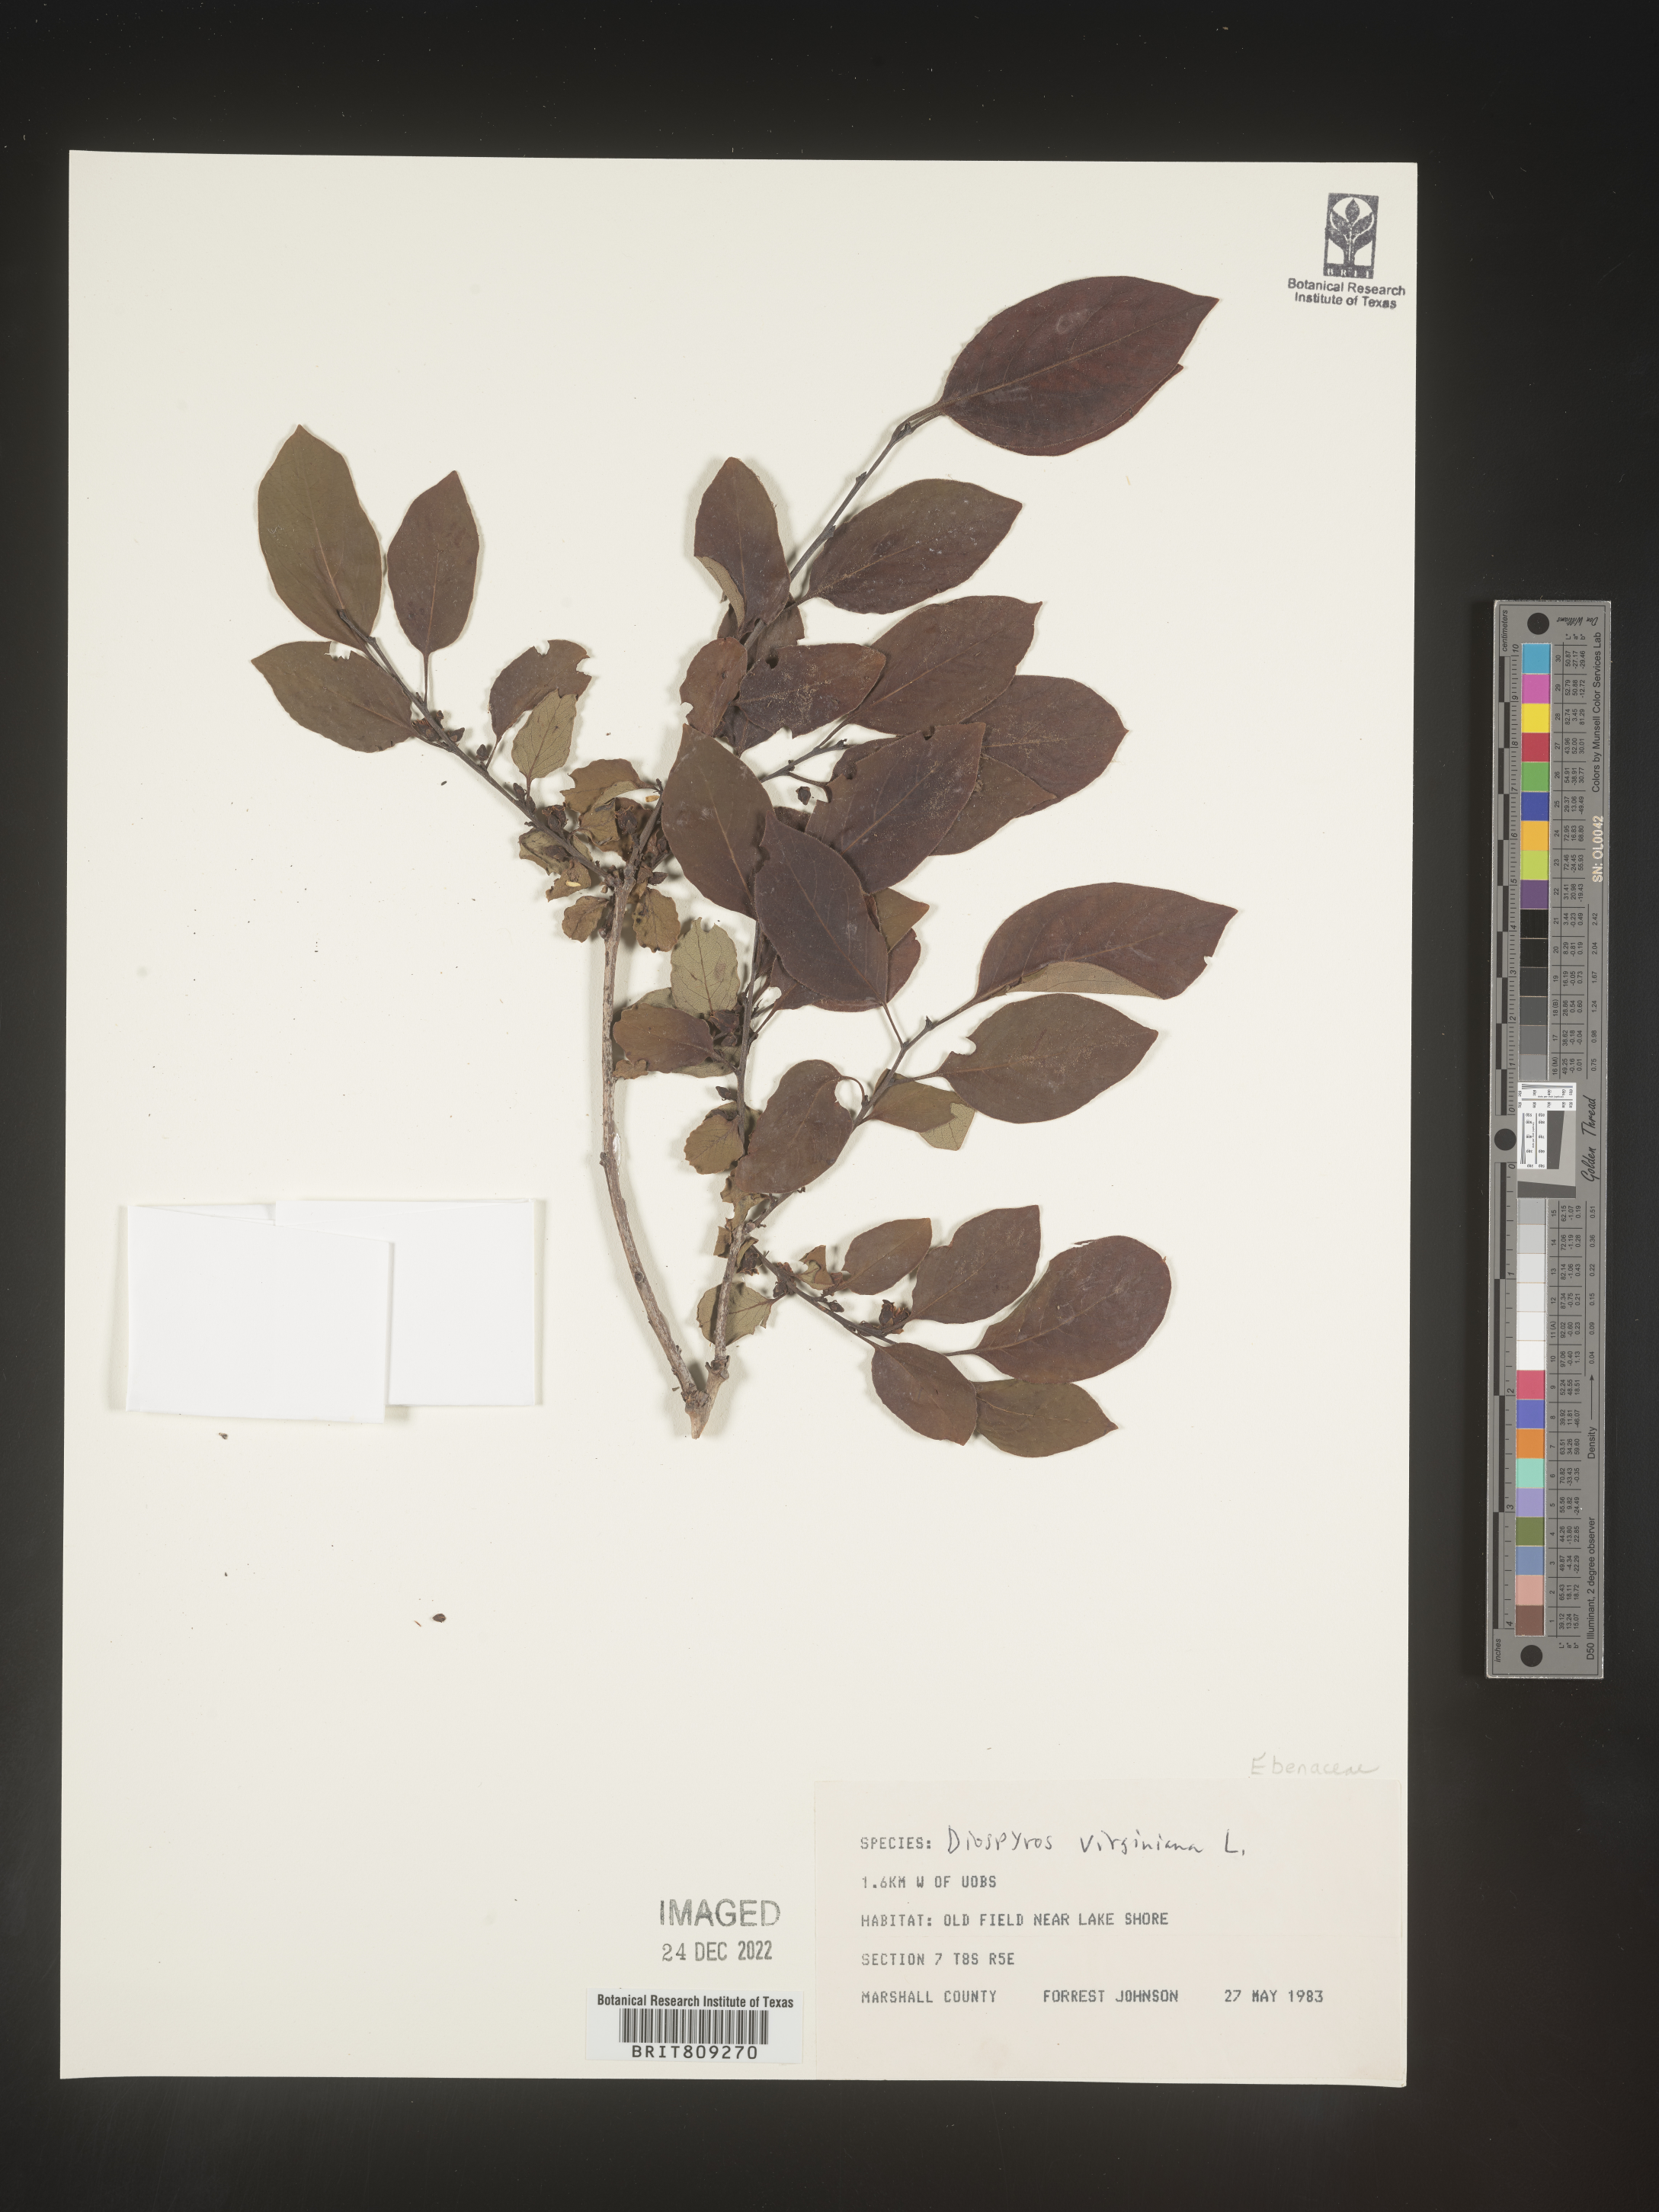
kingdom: Plantae
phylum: Tracheophyta
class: Magnoliopsida
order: Ericales
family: Ebenaceae
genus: Diospyros
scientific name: Diospyros virginiana
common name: Persimmon
